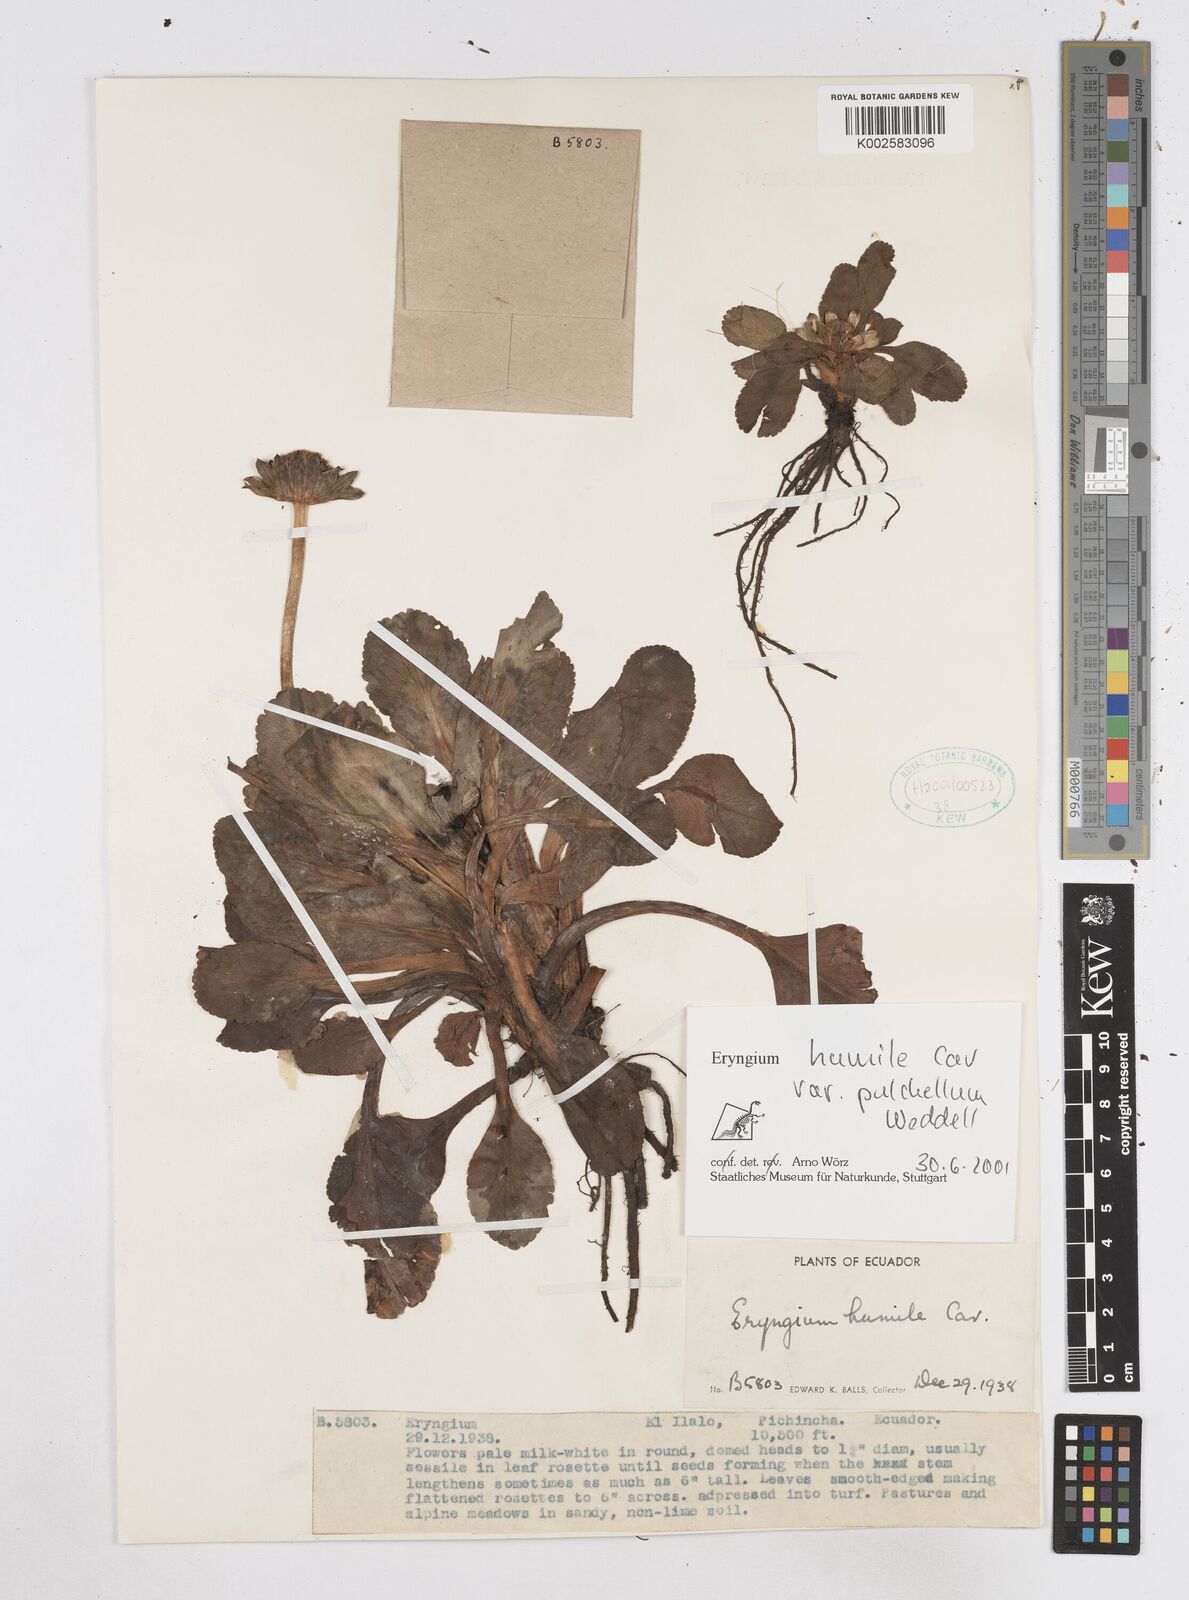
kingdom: Plantae
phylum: Tracheophyta
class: Magnoliopsida
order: Apiales
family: Apiaceae
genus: Eryngium
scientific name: Eryngium humile
